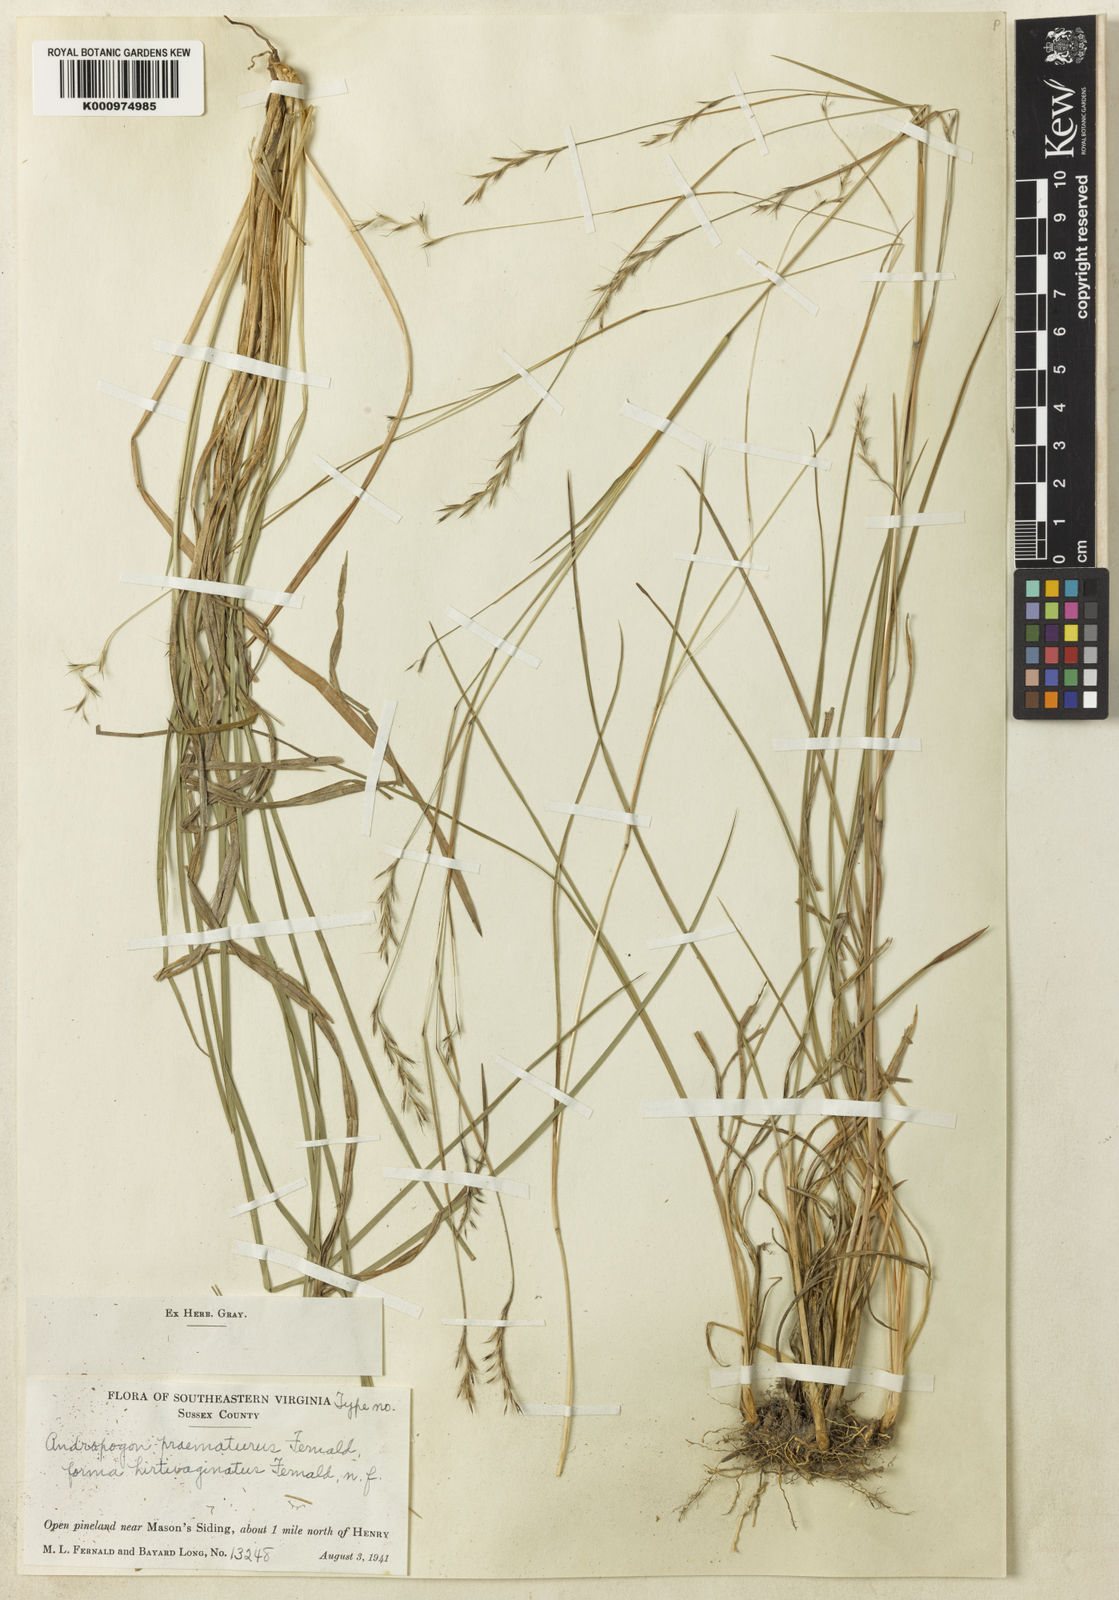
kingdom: Plantae
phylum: Tracheophyta
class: Liliopsida
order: Poales
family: Poaceae
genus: Schizachyrium
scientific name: Schizachyrium scoparium
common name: Little bluestem
